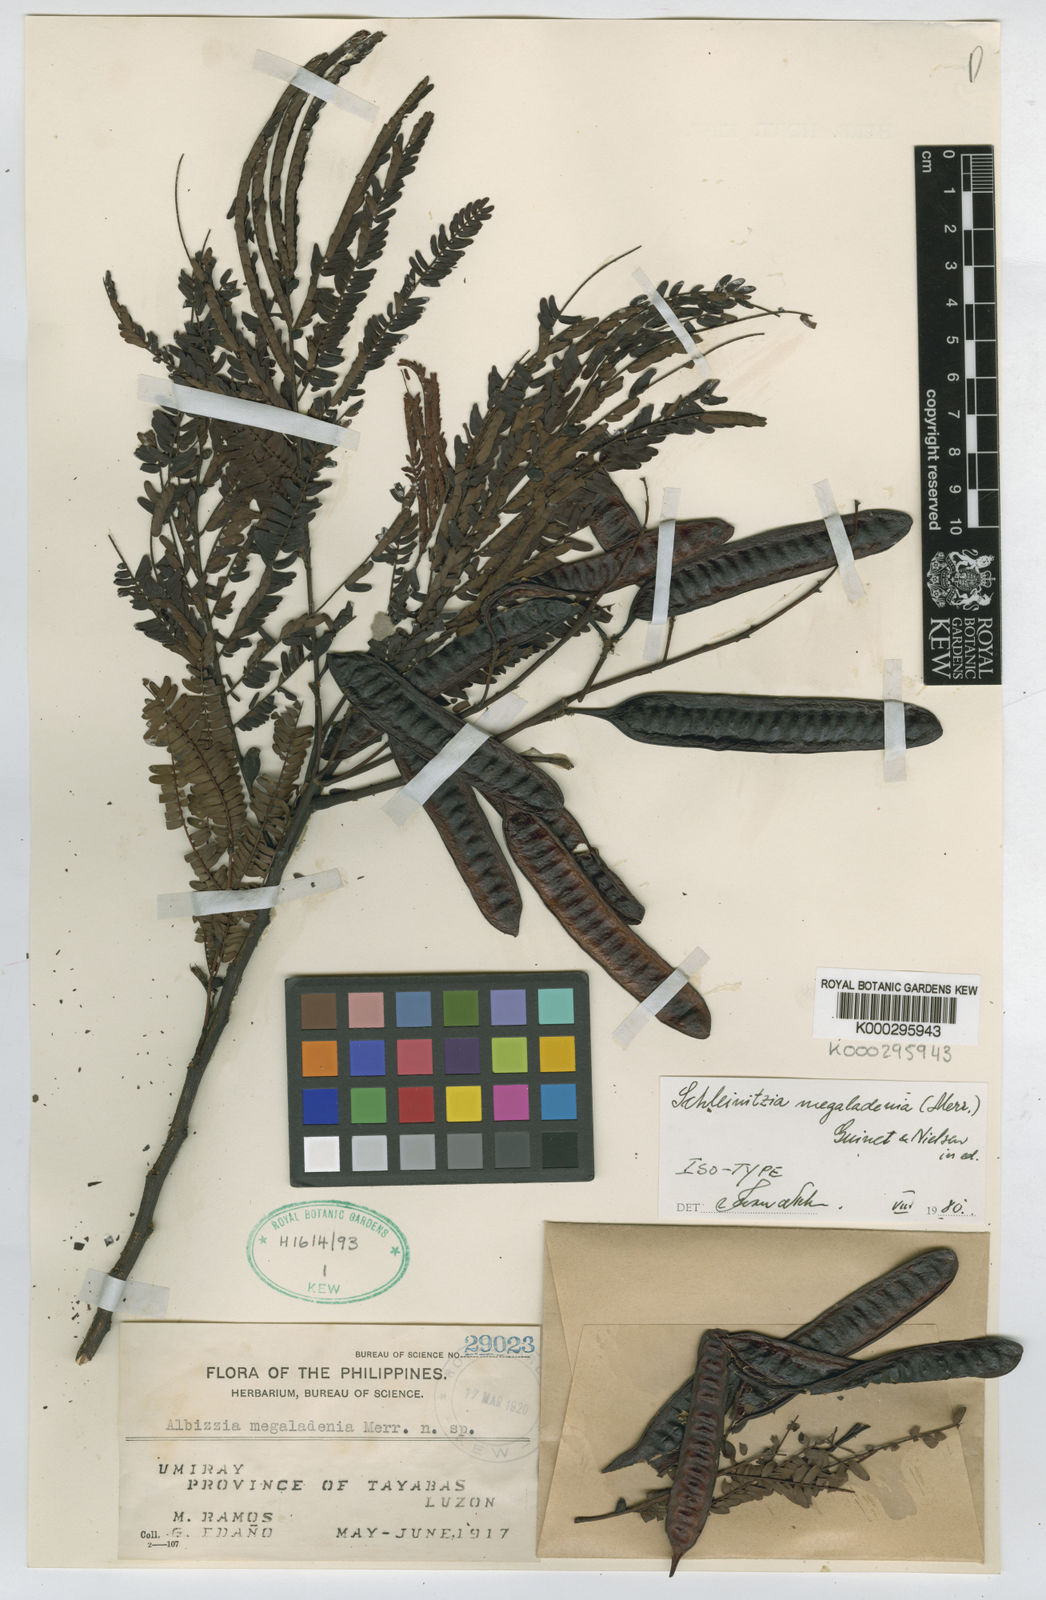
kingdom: Plantae
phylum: Tracheophyta
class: Magnoliopsida
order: Fabales
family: Fabaceae
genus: Schleinitzia
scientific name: Schleinitzia megaladenia
